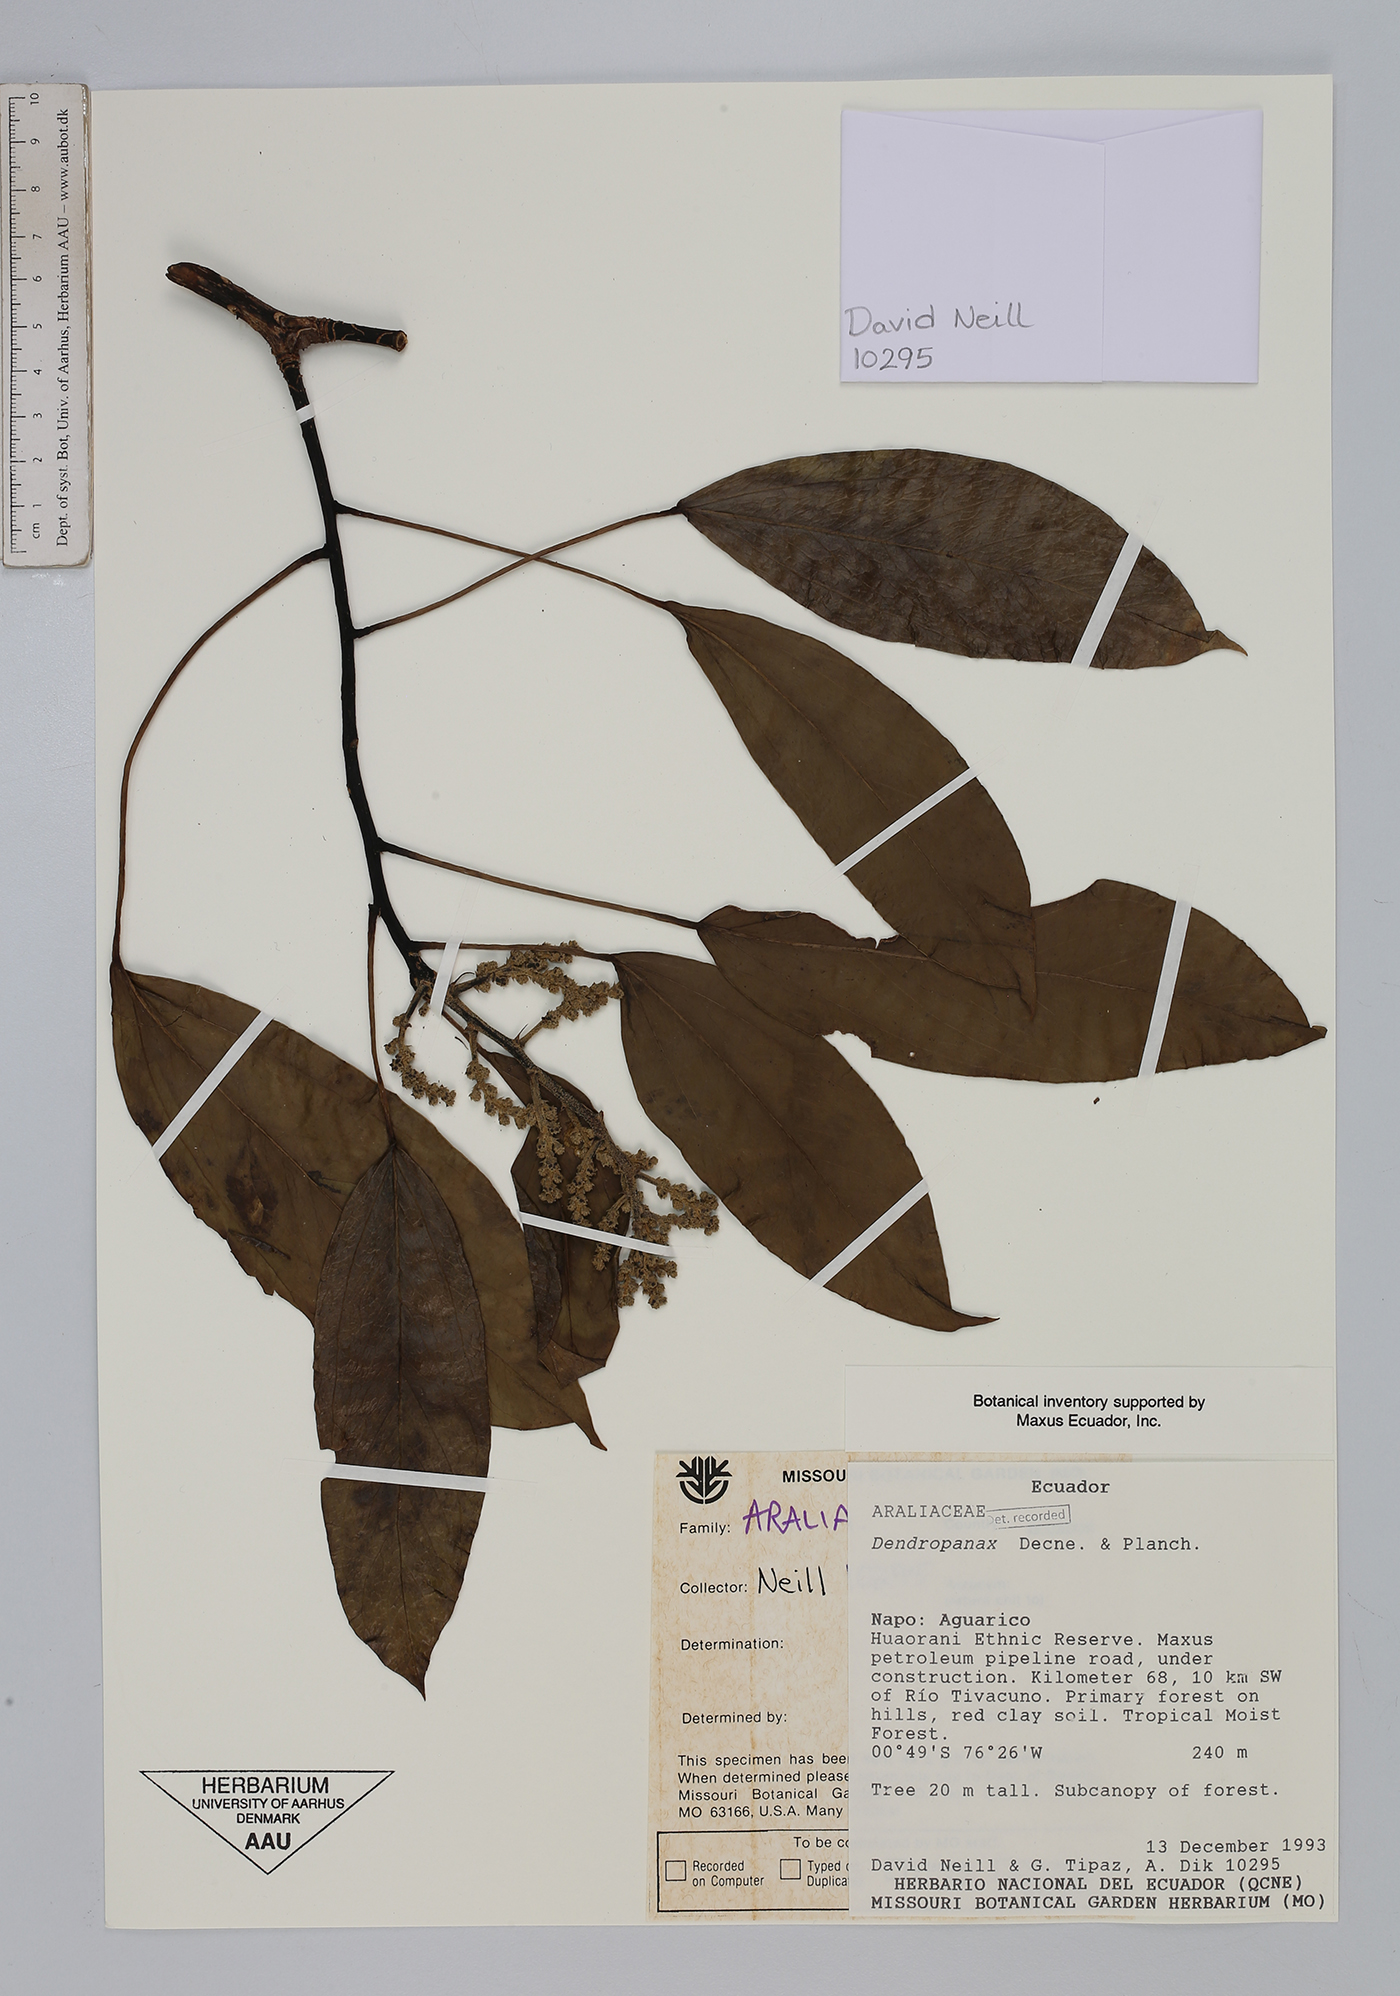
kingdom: Plantae
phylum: Tracheophyta
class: Magnoliopsida
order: Apiales
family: Araliaceae
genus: Dendropanax
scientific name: Dendropanax
